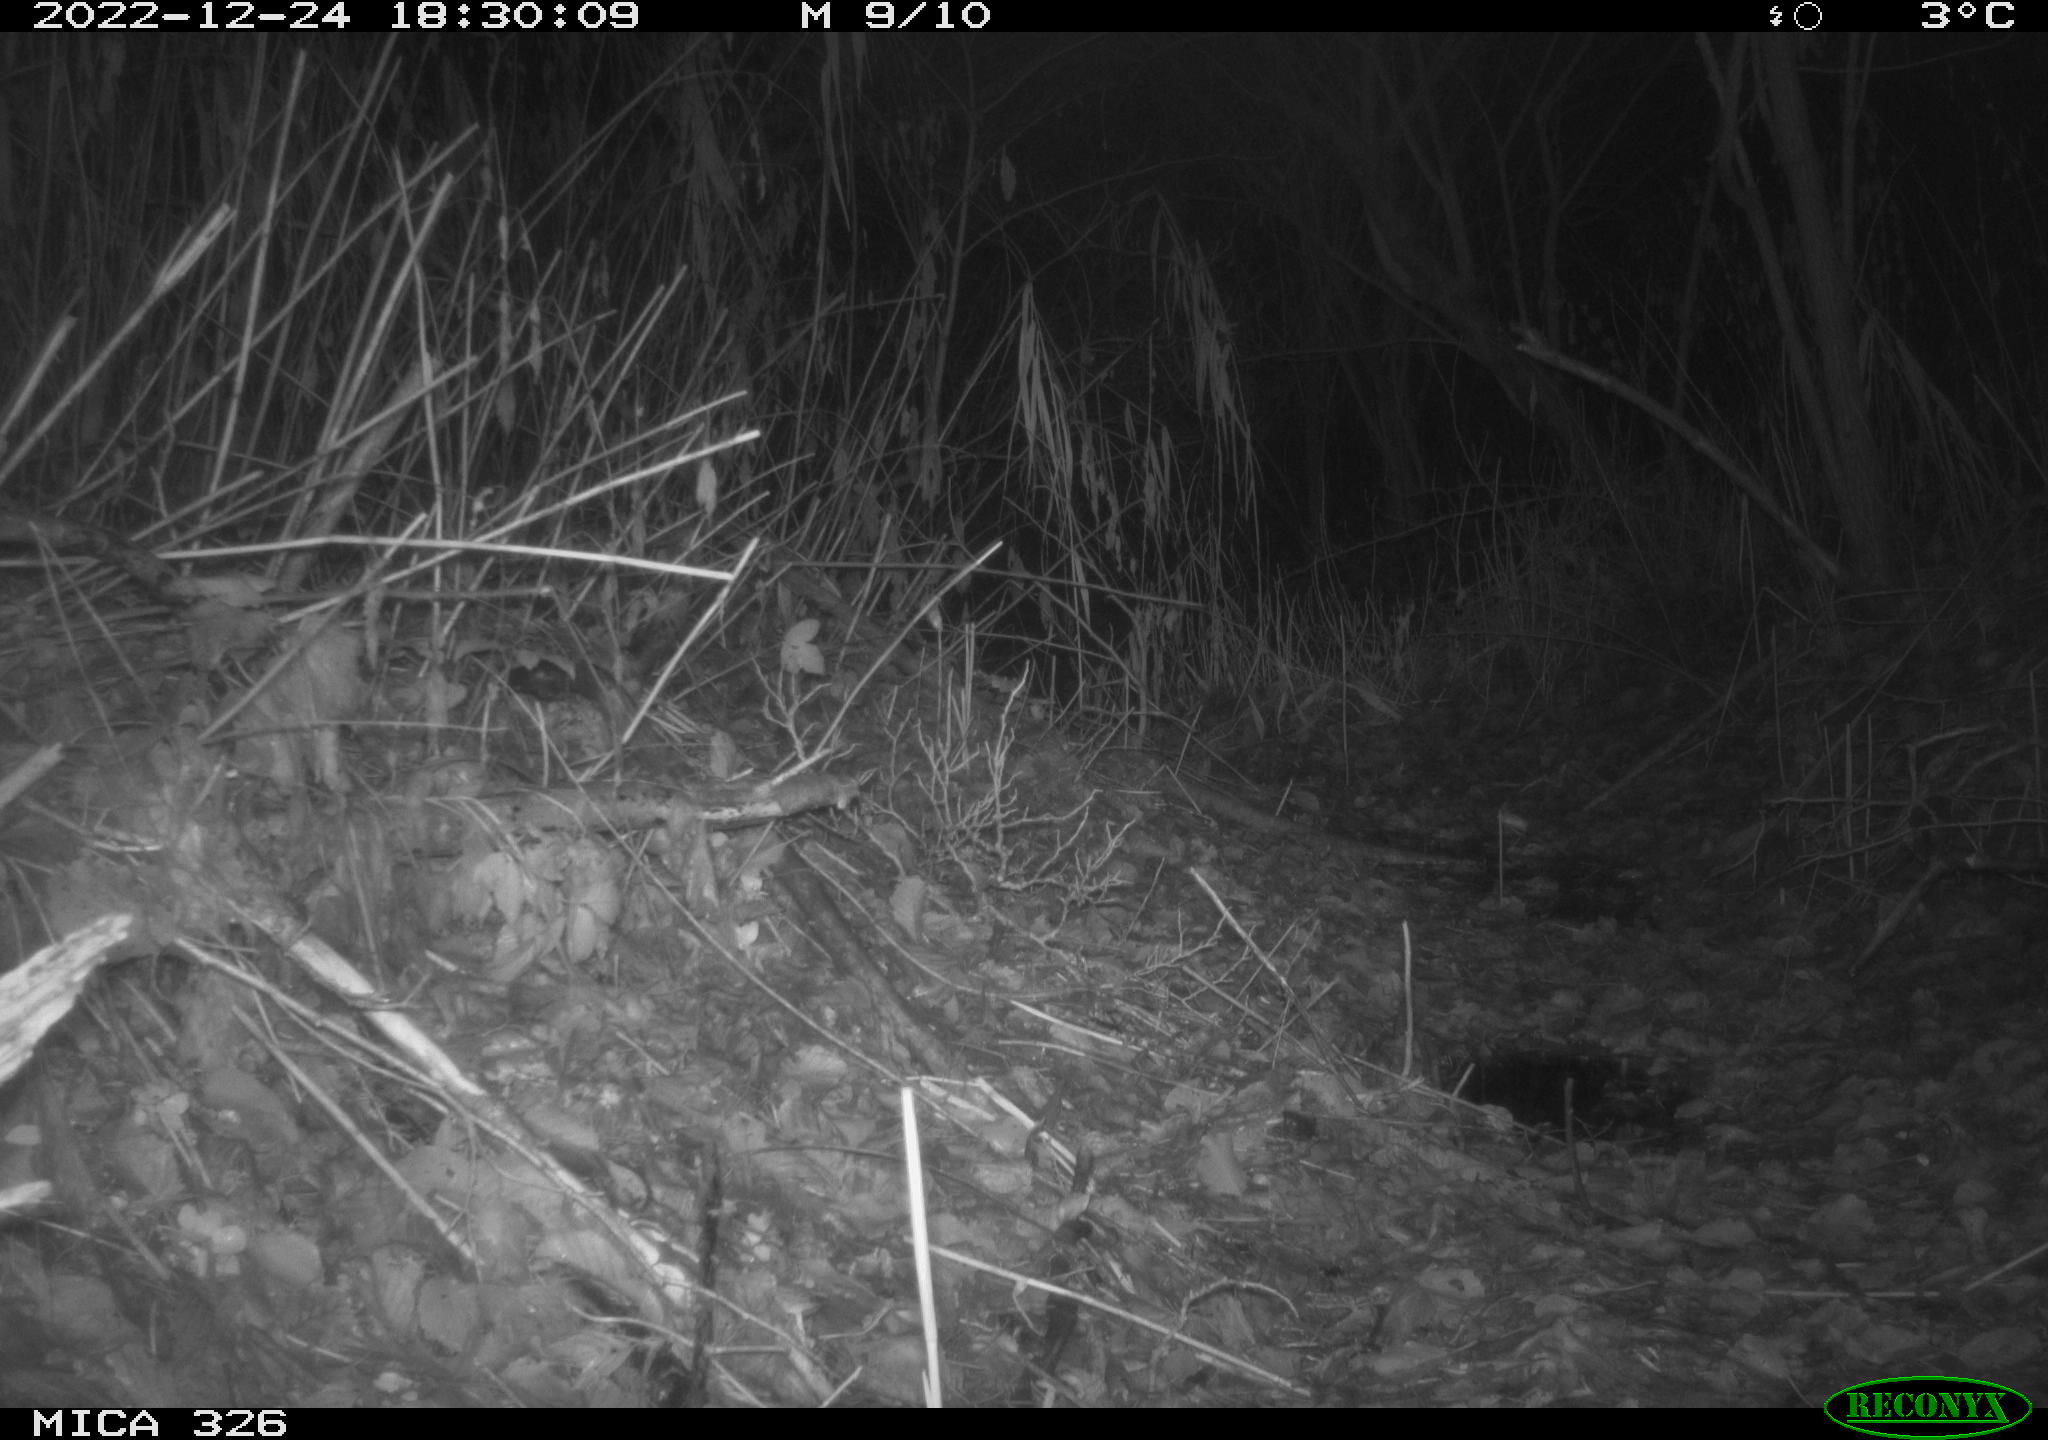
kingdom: Animalia
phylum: Chordata
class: Mammalia
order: Carnivora
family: Canidae
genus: Vulpes
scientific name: Vulpes vulpes
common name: Red fox
